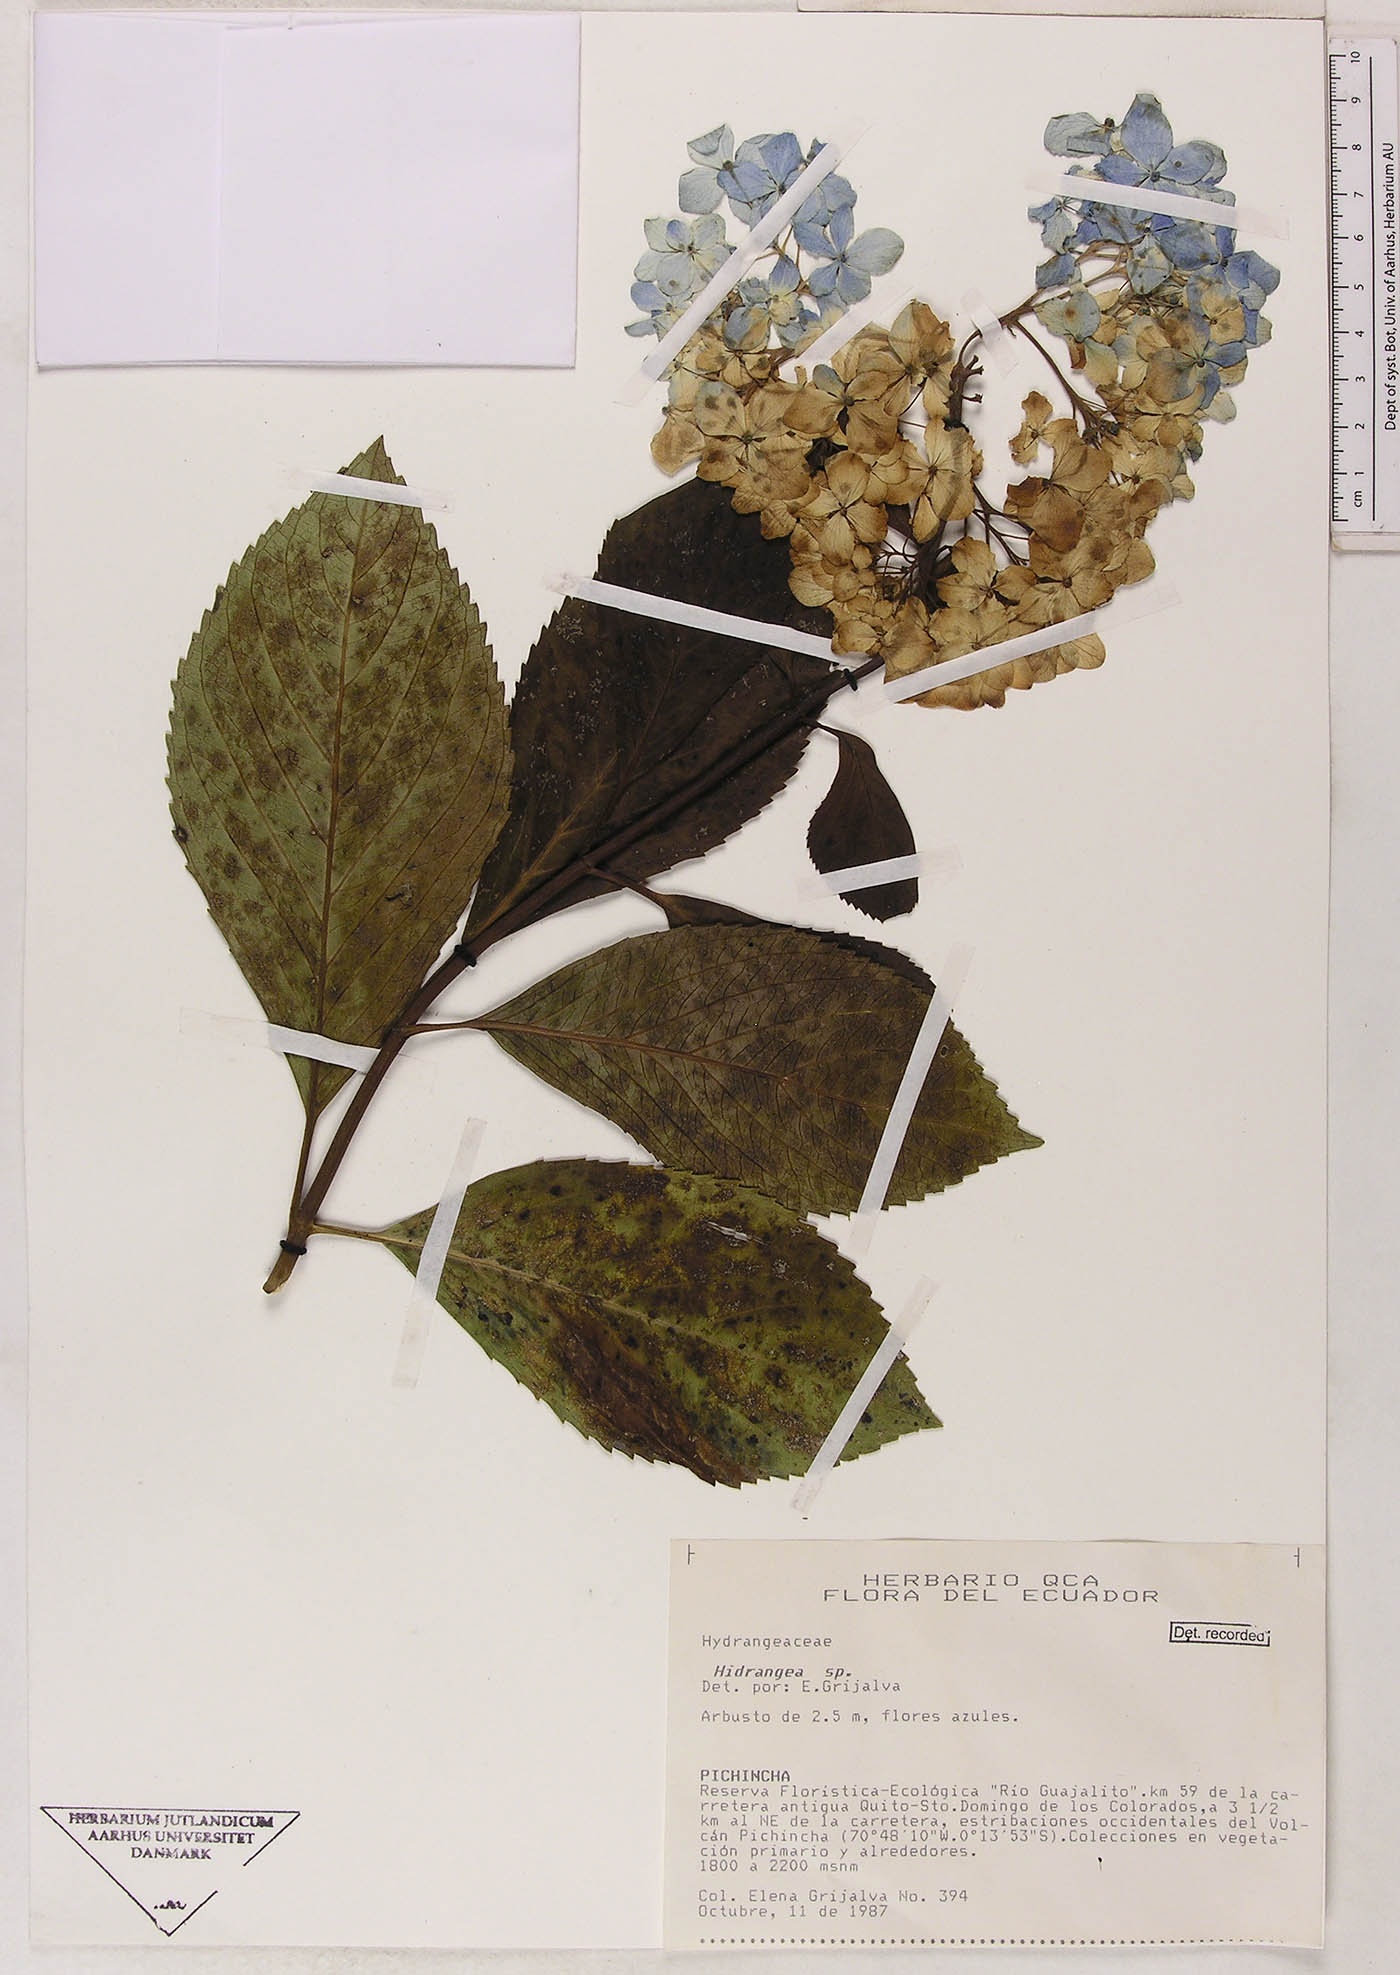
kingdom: Plantae
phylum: Tracheophyta
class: Magnoliopsida
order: Cornales
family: Hydrangeaceae
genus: Hydrangea
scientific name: Hydrangea
